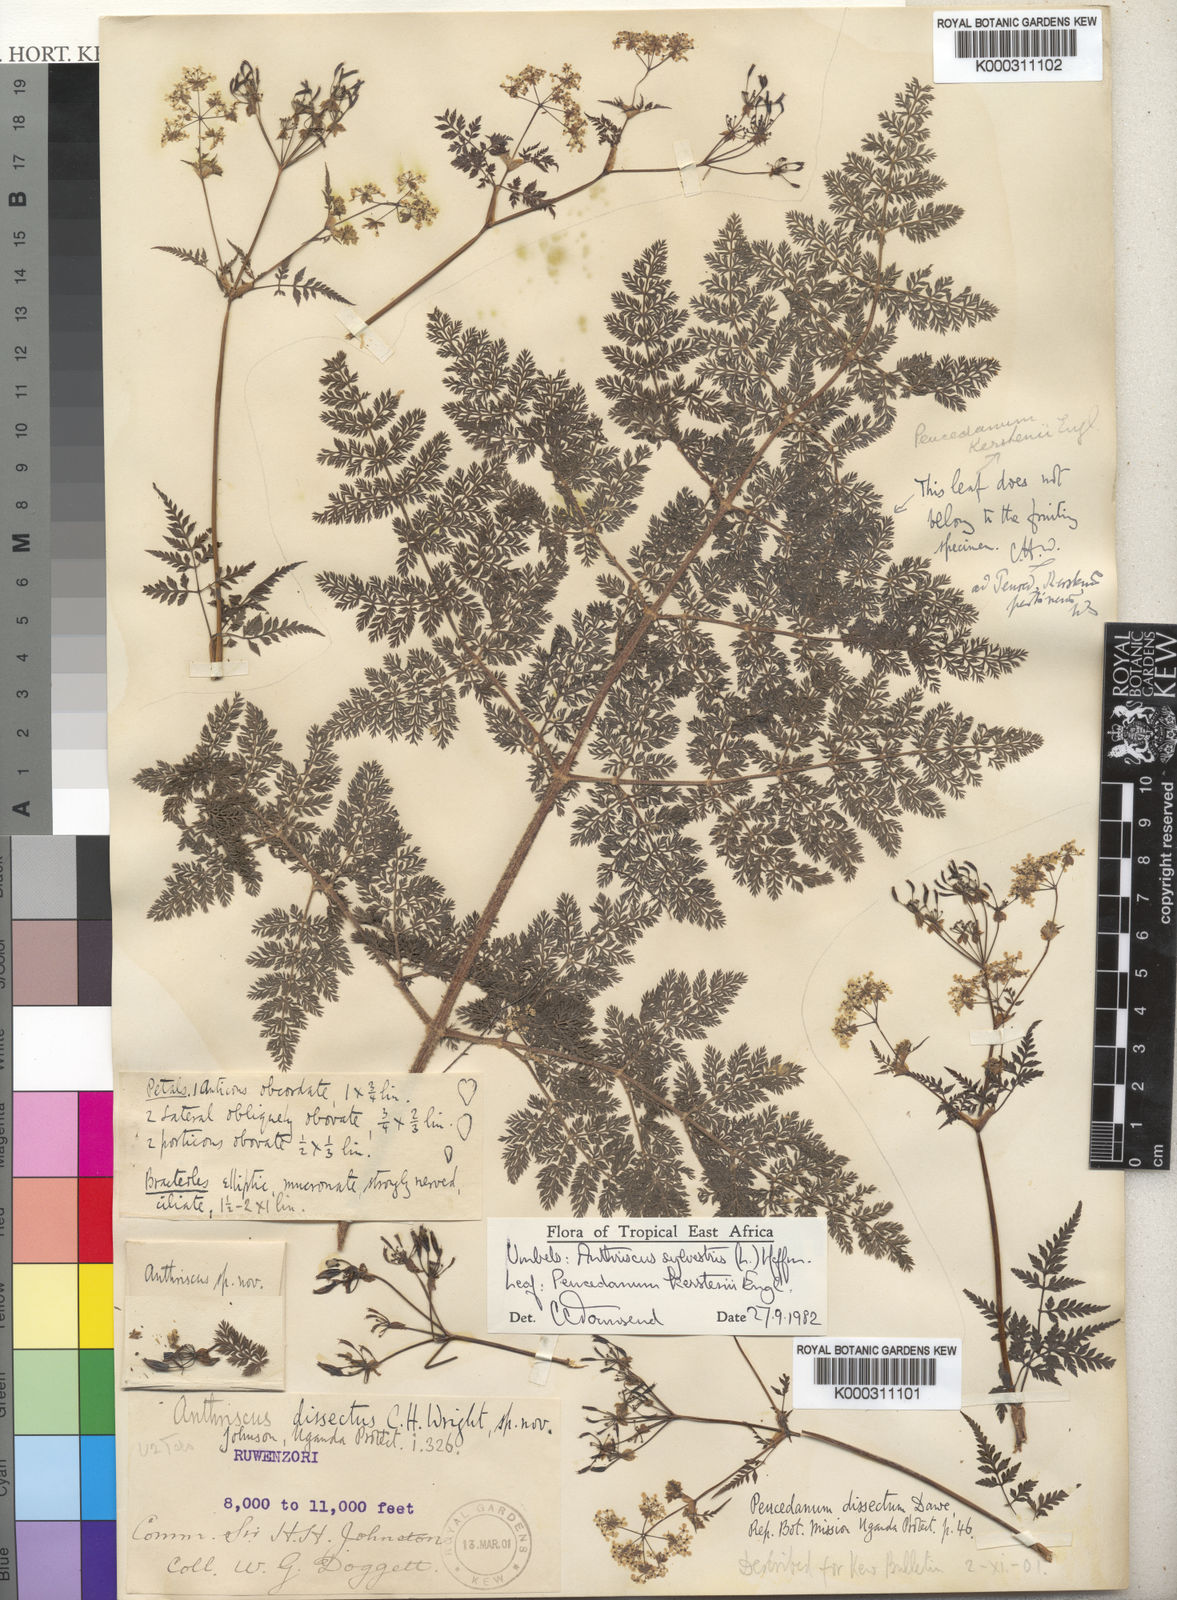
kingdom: Plantae
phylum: Tracheophyta
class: Magnoliopsida
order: Apiales
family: Apiaceae
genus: Anthriscus
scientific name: Anthriscus sylvestris
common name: Cow parsley
